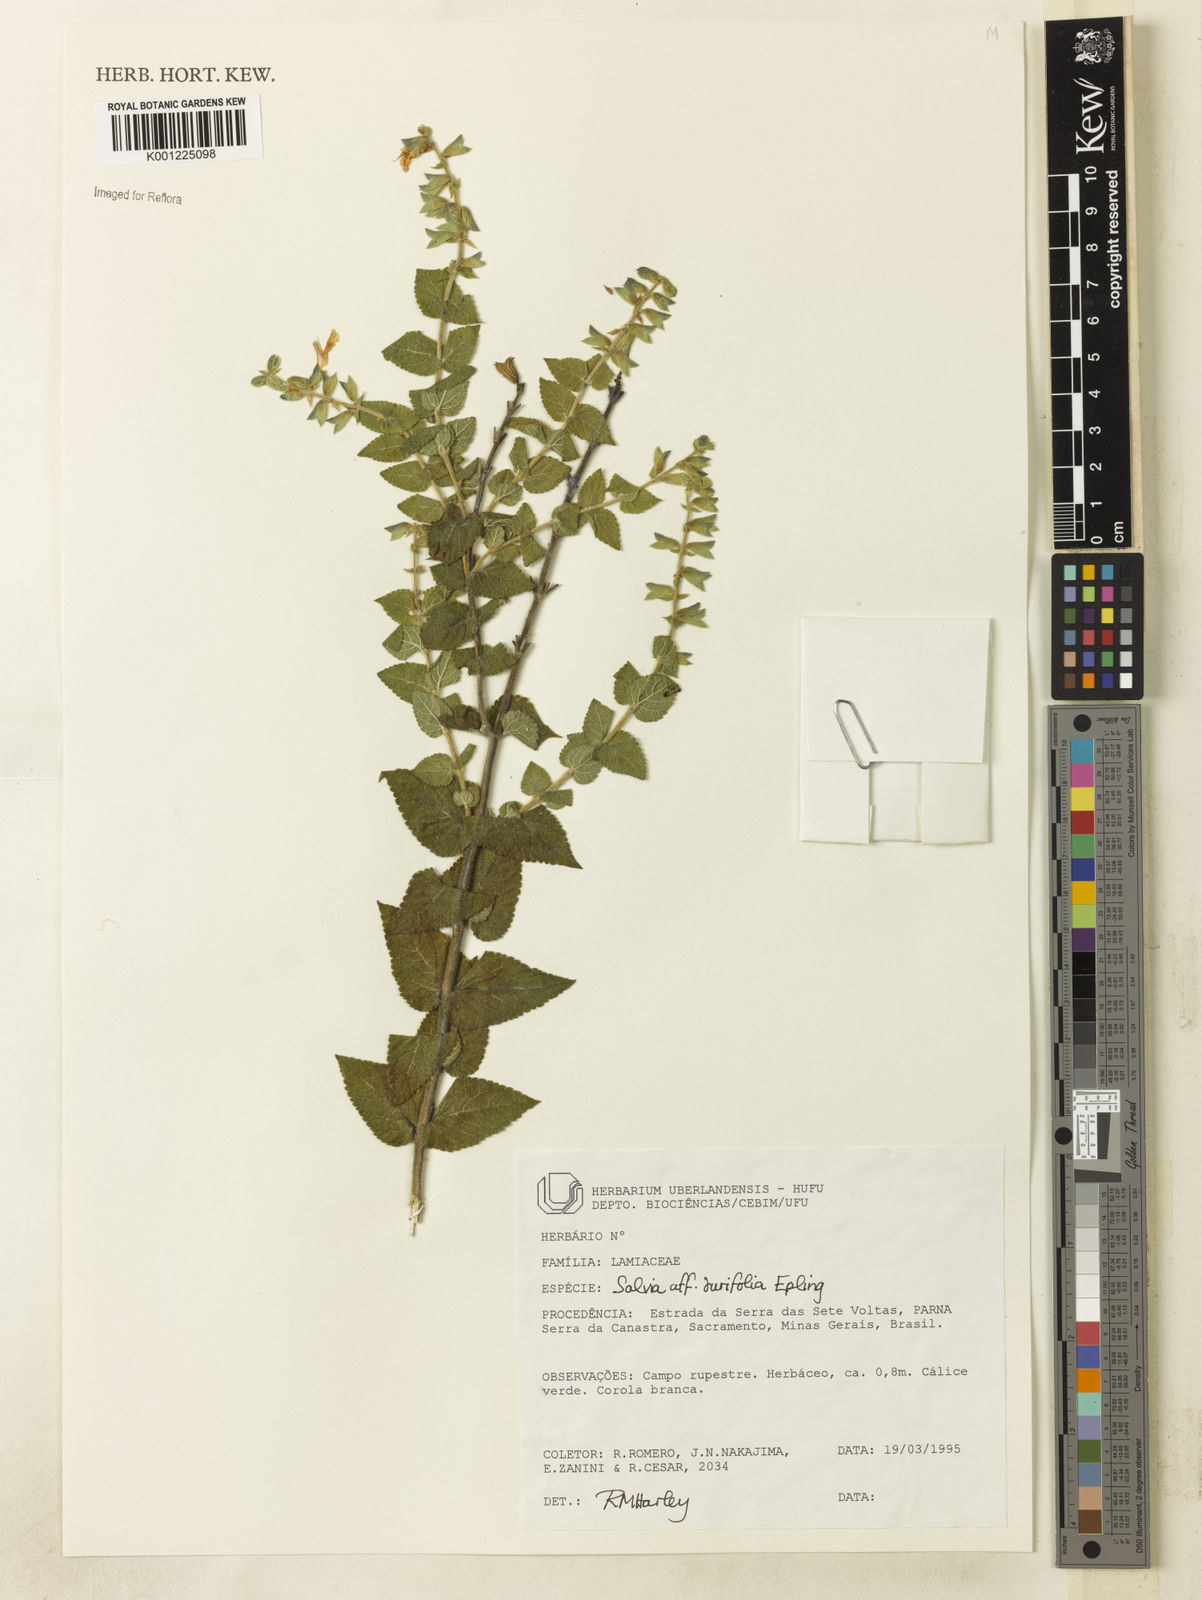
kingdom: Plantae
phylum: Tracheophyta
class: Magnoliopsida
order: Lamiales
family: Lamiaceae
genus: Salvia
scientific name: Salvia ovalifolia
